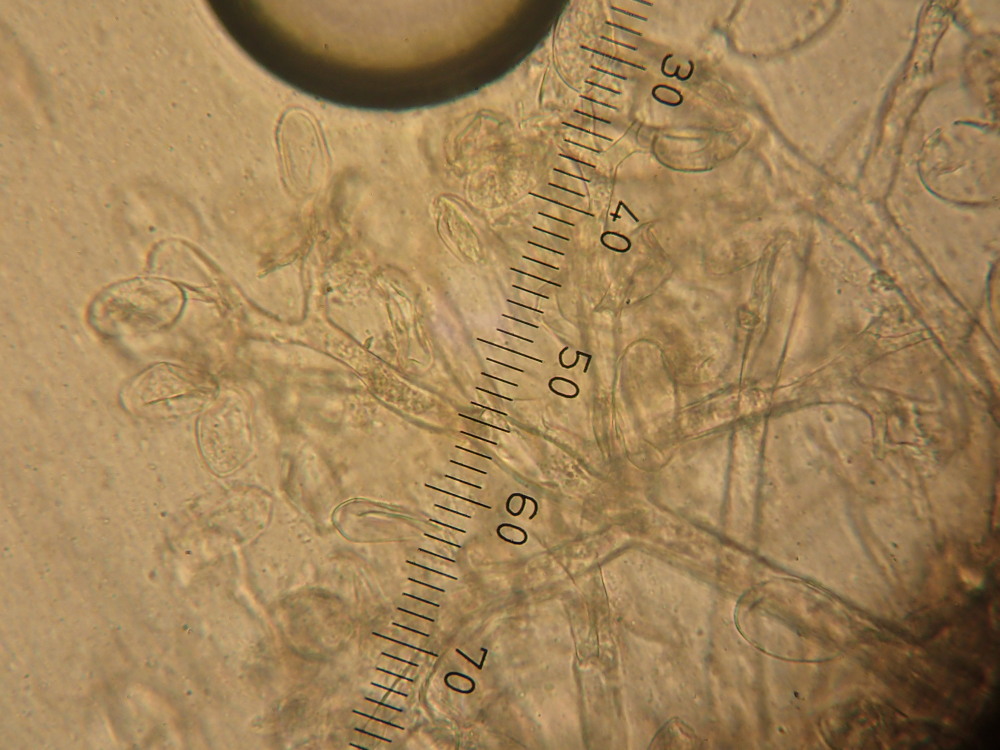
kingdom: Chromista
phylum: Oomycota
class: Peronosporea
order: Peronosporales
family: Peronosporaceae
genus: Paraperonospora
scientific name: Paraperonospora leptosperma
